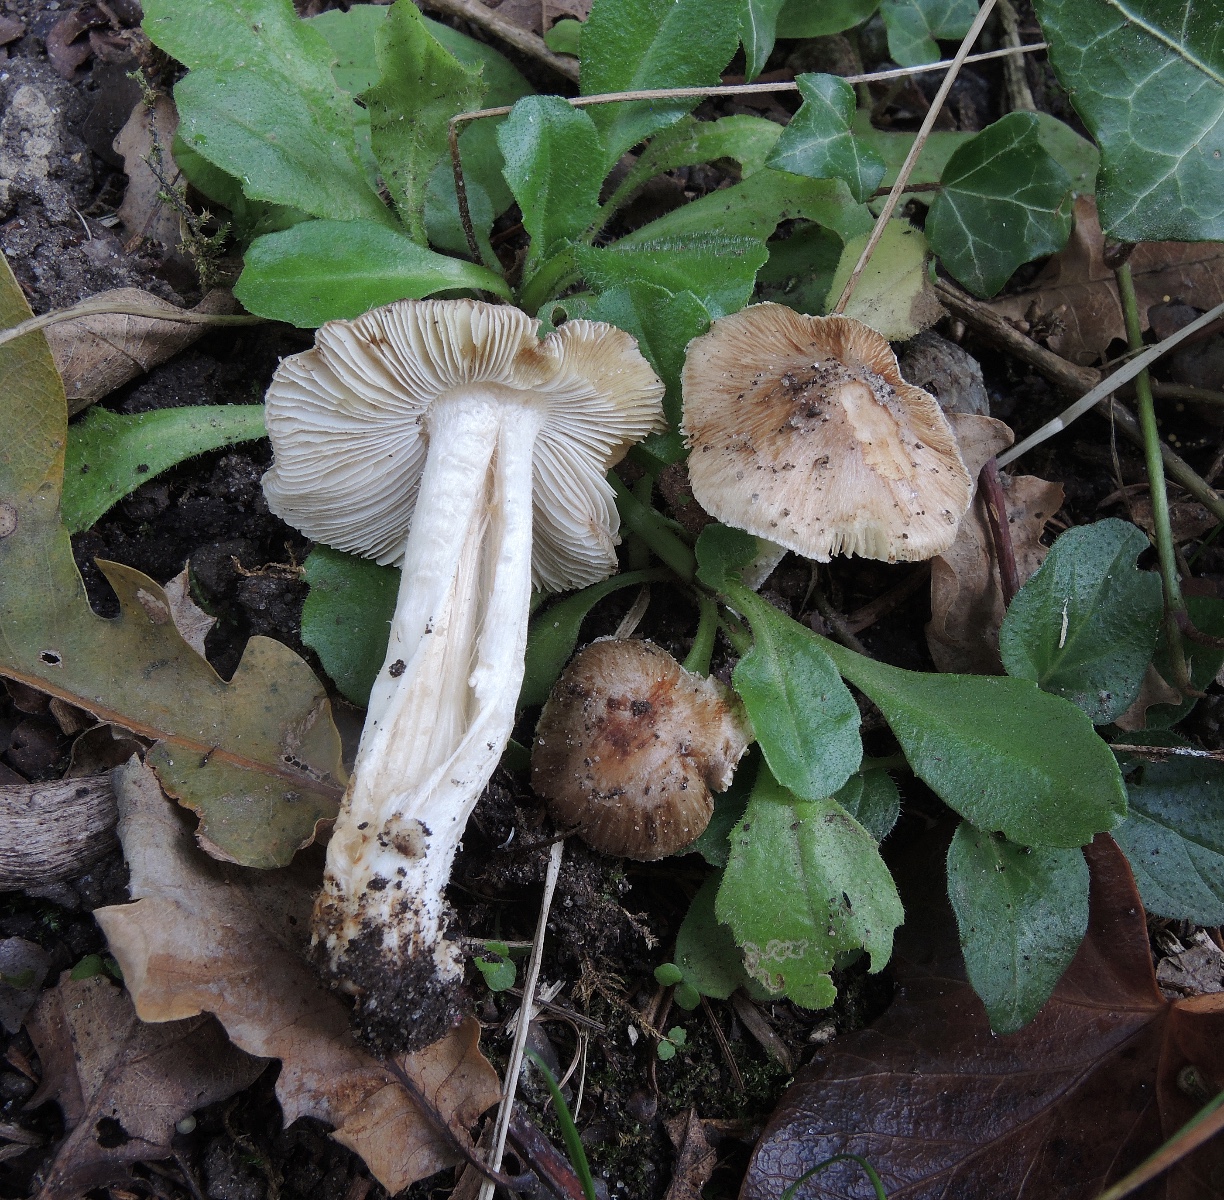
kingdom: Fungi
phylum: Basidiomycota
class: Agaricomycetes
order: Agaricales
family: Inocybaceae
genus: Pseudosperma
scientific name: Pseudosperma umbrinellum
